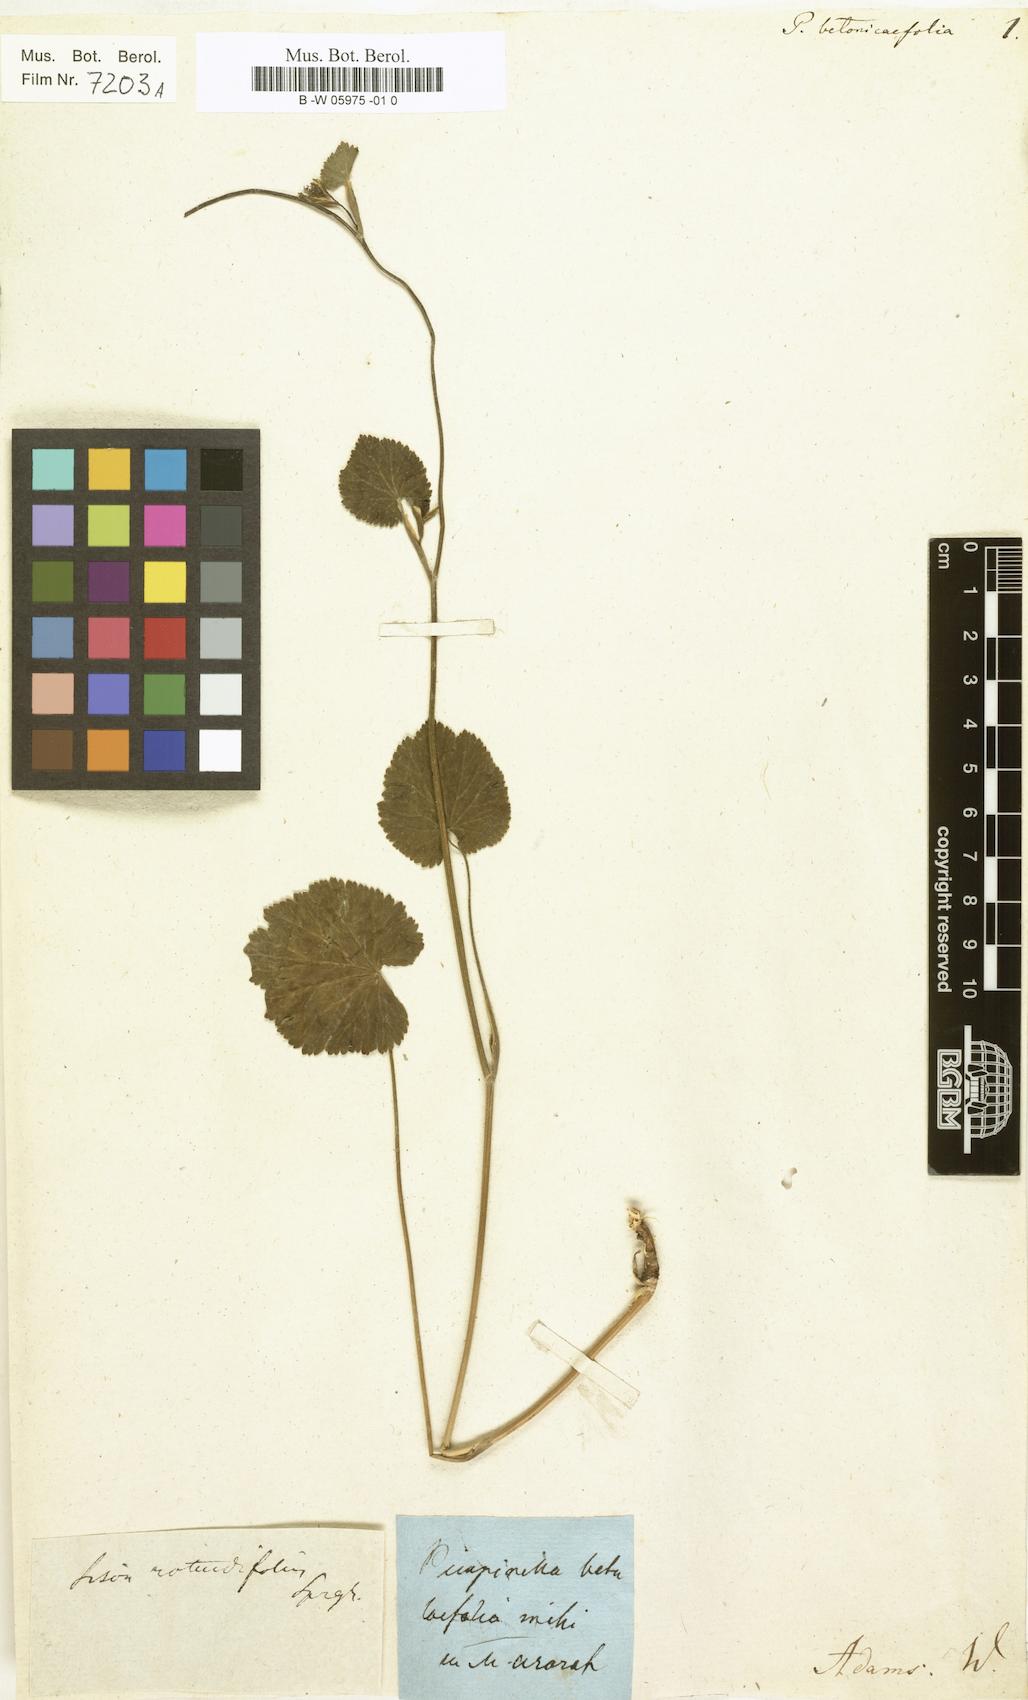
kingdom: Plantae
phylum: Tracheophyta
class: Magnoliopsida
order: Apiales
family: Apiaceae
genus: Pimpinella
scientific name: Pimpinella tripartita
